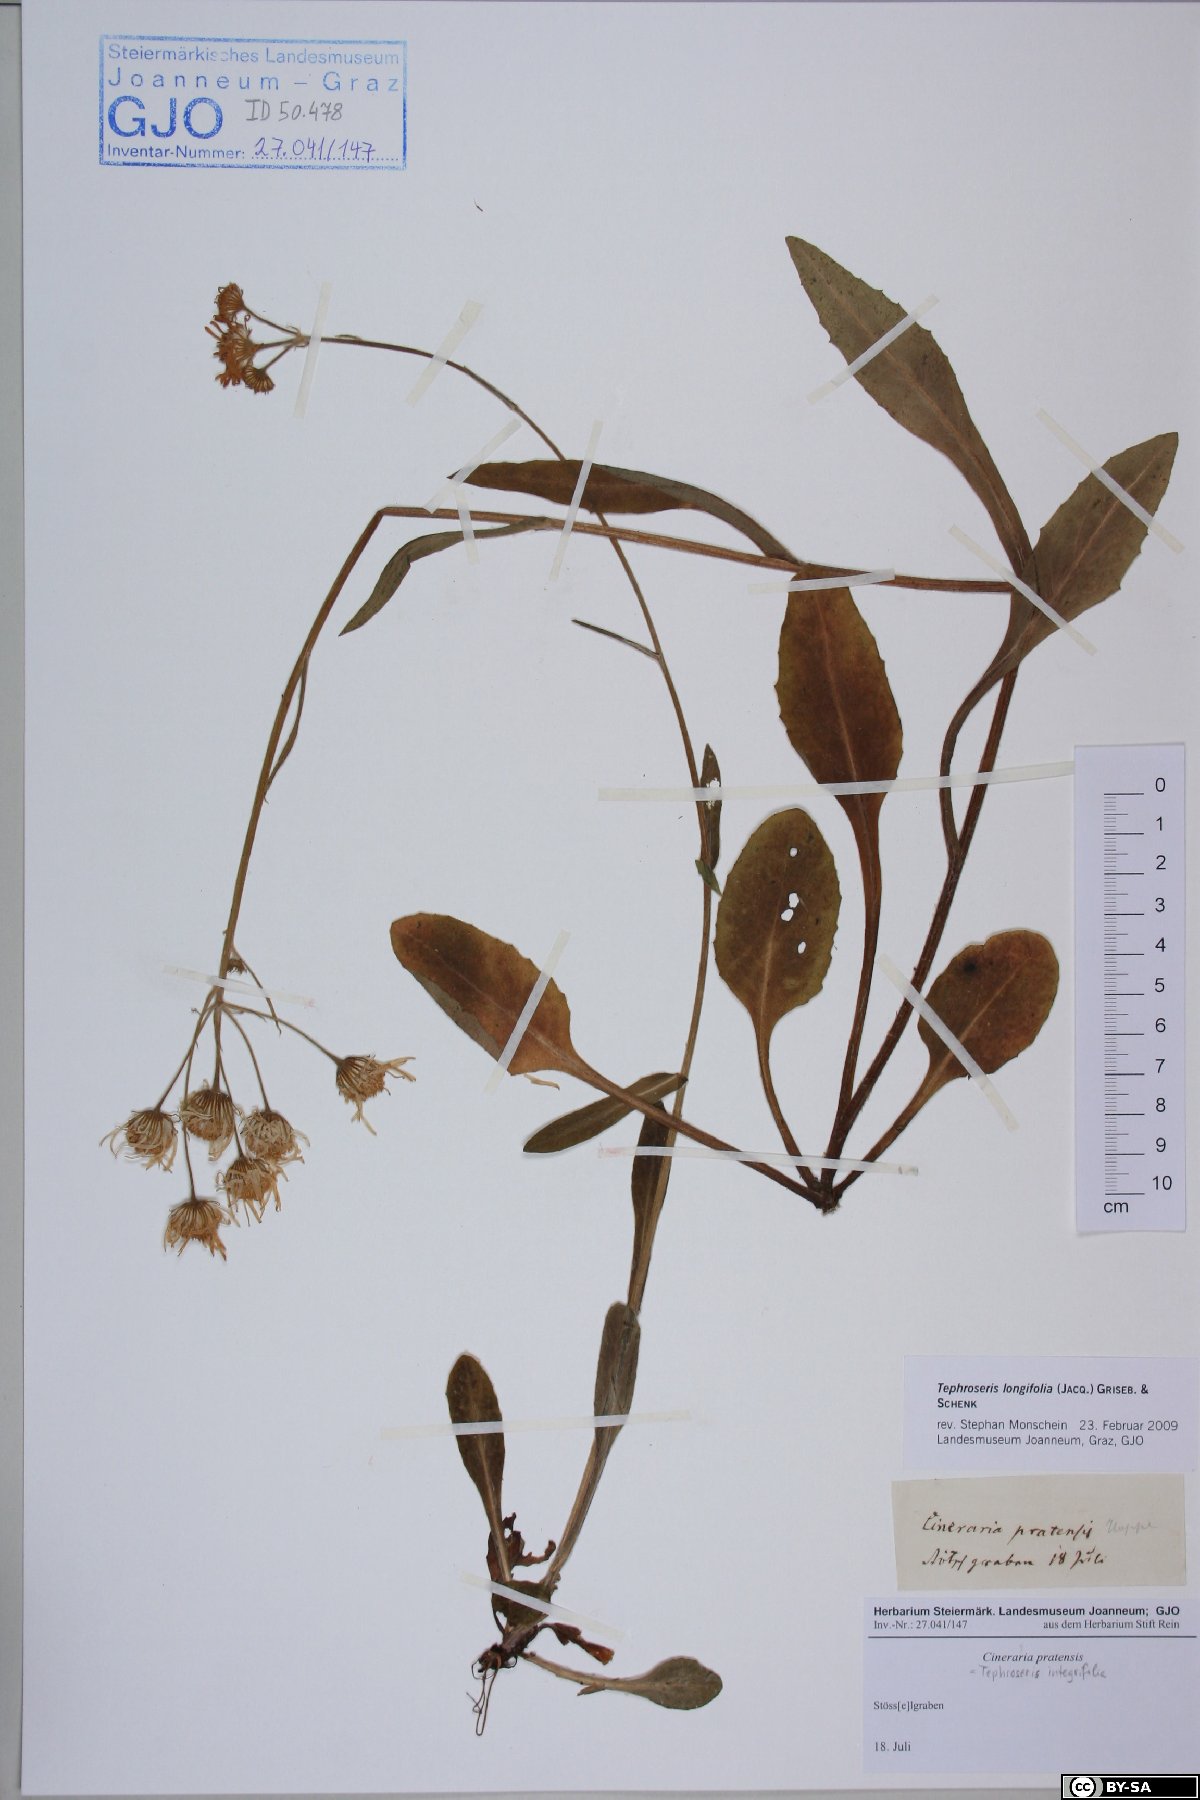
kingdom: Plantae
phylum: Tracheophyta
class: Magnoliopsida
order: Asterales
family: Asteraceae
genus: Tephroseris
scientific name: Tephroseris longifolia
